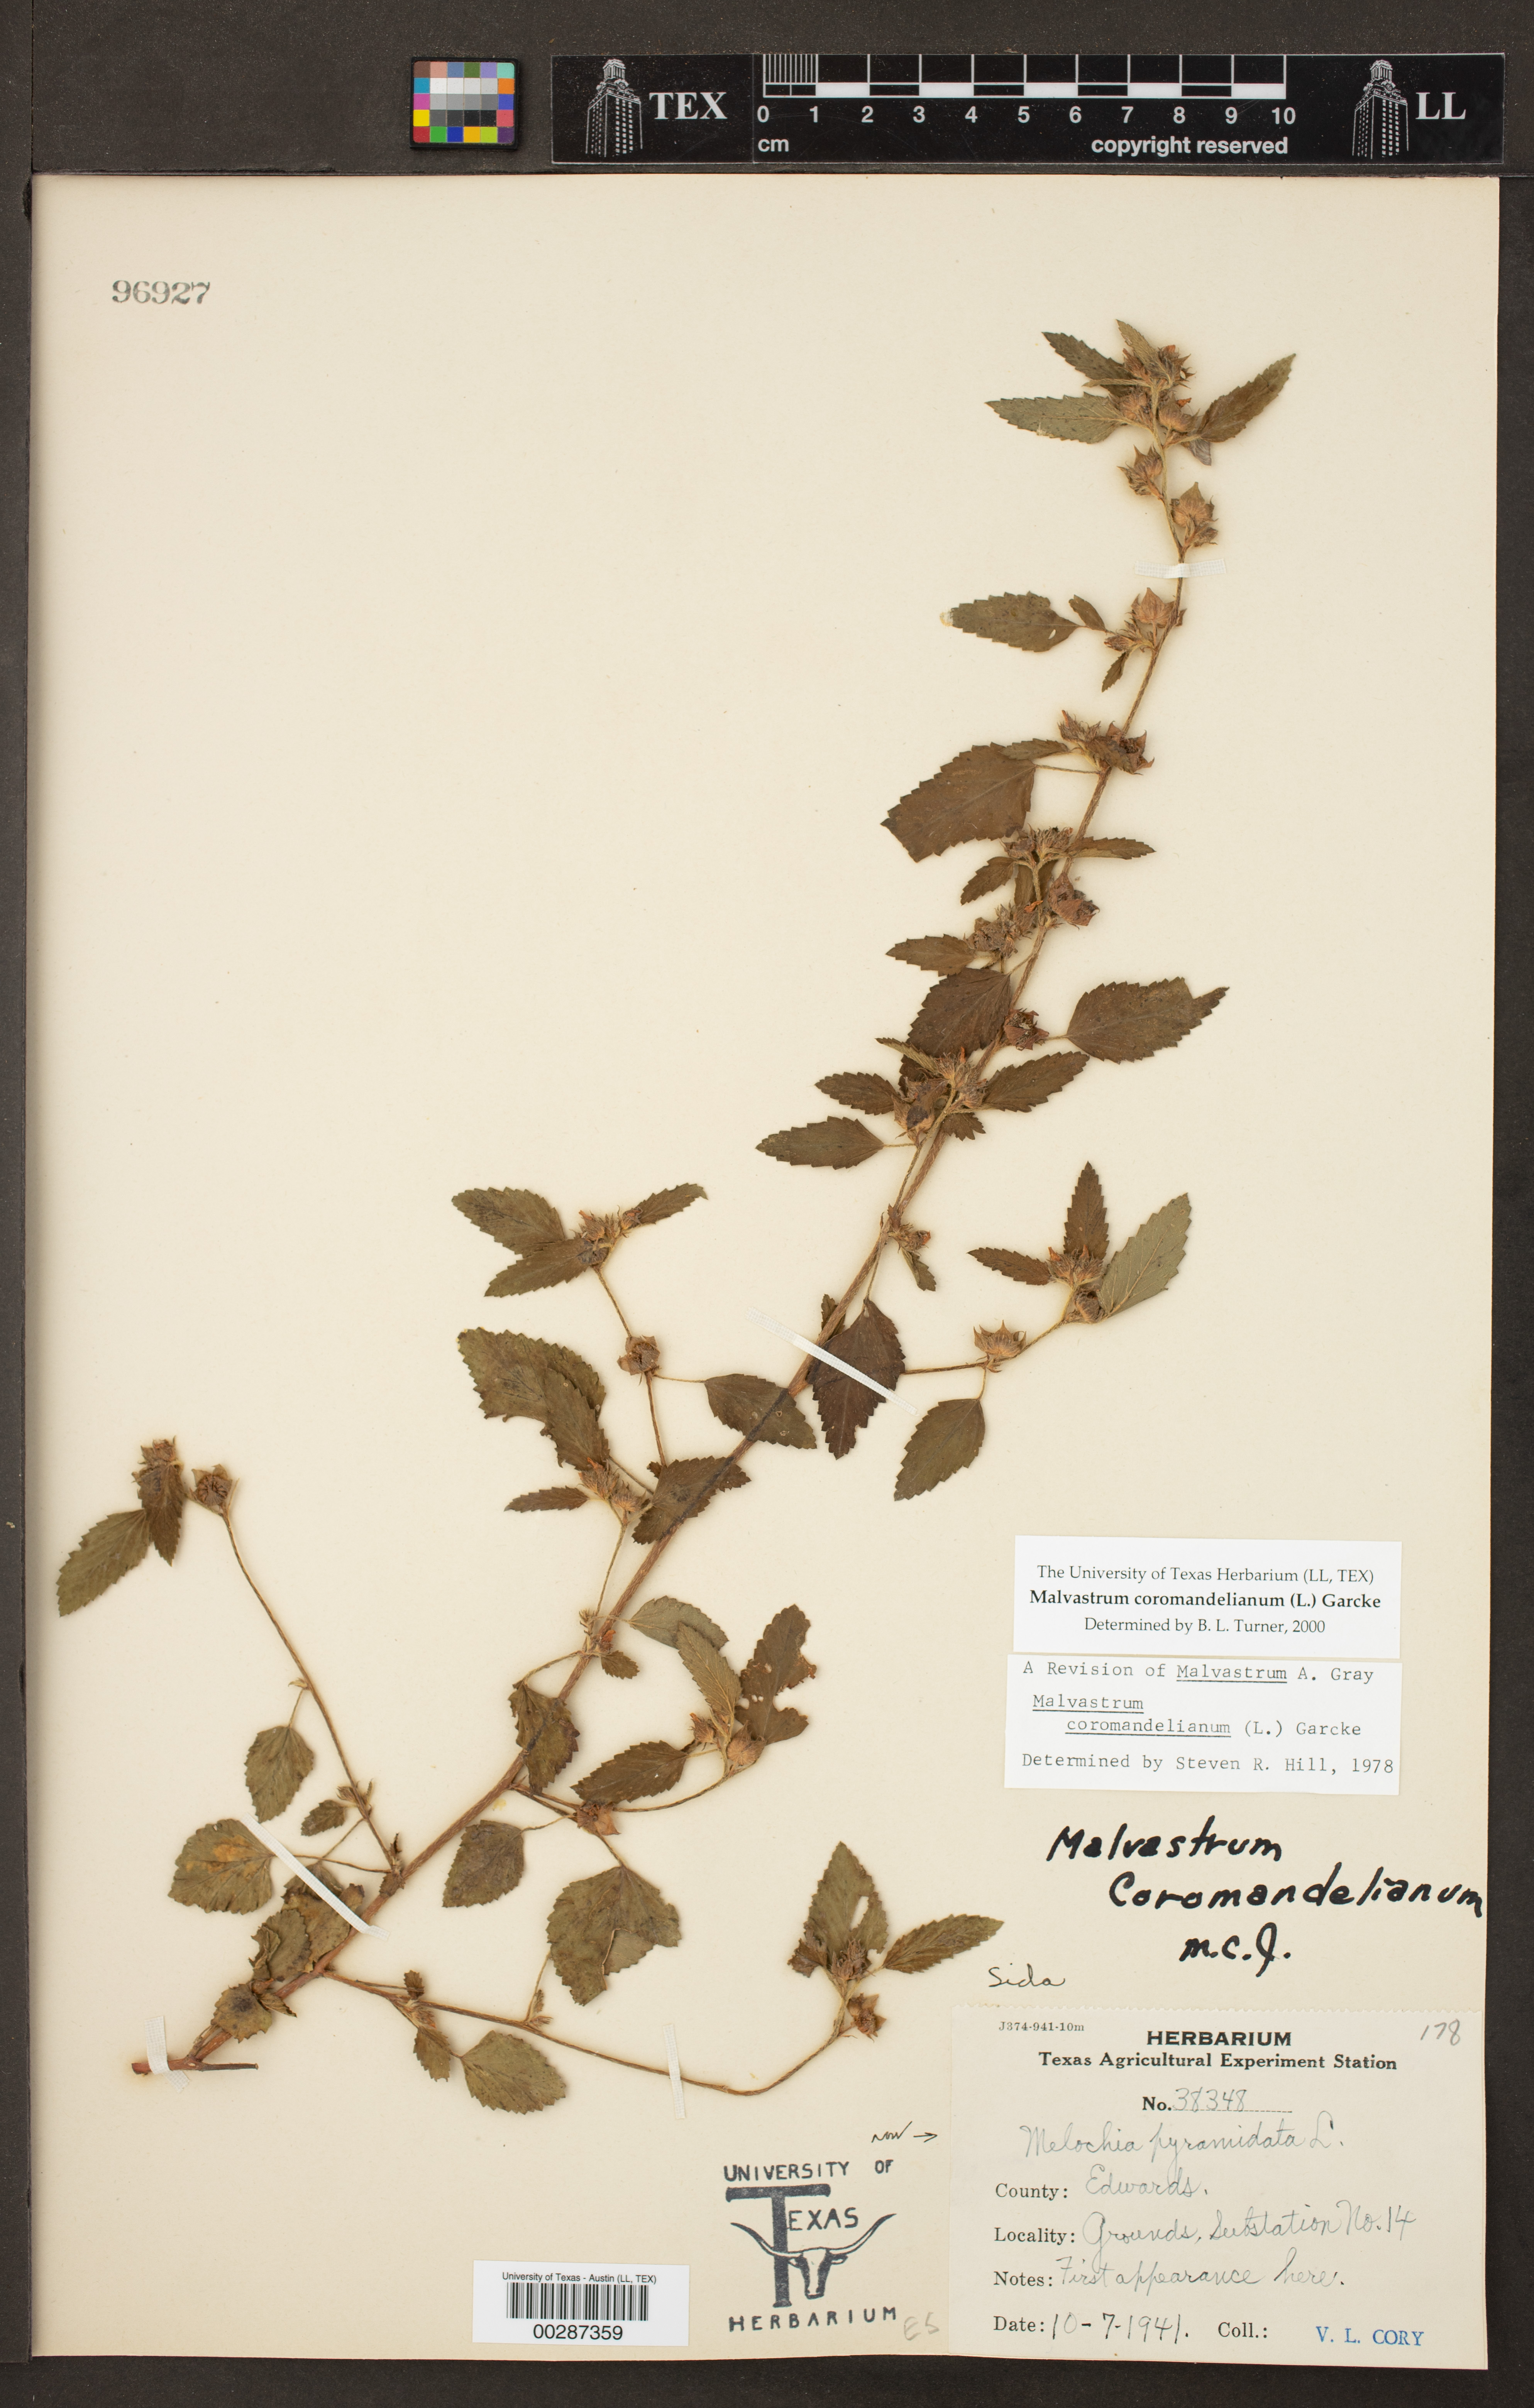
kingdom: Plantae
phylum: Tracheophyta
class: Magnoliopsida
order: Malvales
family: Malvaceae
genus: Malvastrum
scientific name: Malvastrum coromandelianum
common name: Threelobe false mallow
